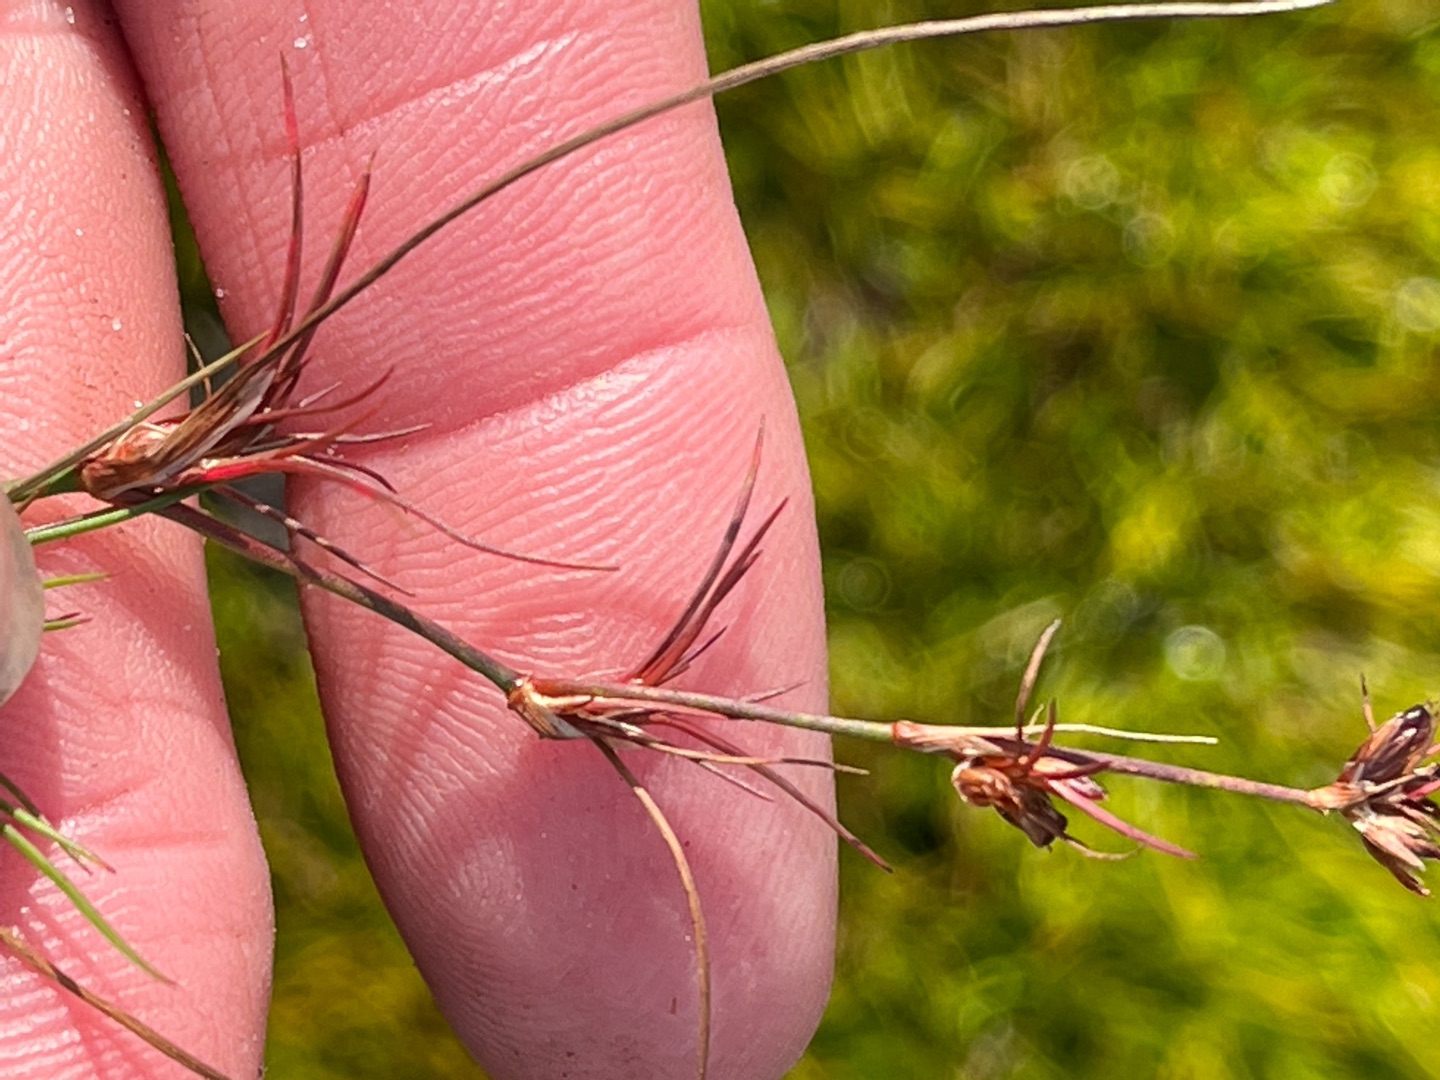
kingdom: Plantae
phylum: Tracheophyta
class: Liliopsida
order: Poales
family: Juncaceae
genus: Juncus
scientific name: Juncus bulbosus
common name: Liden siv
